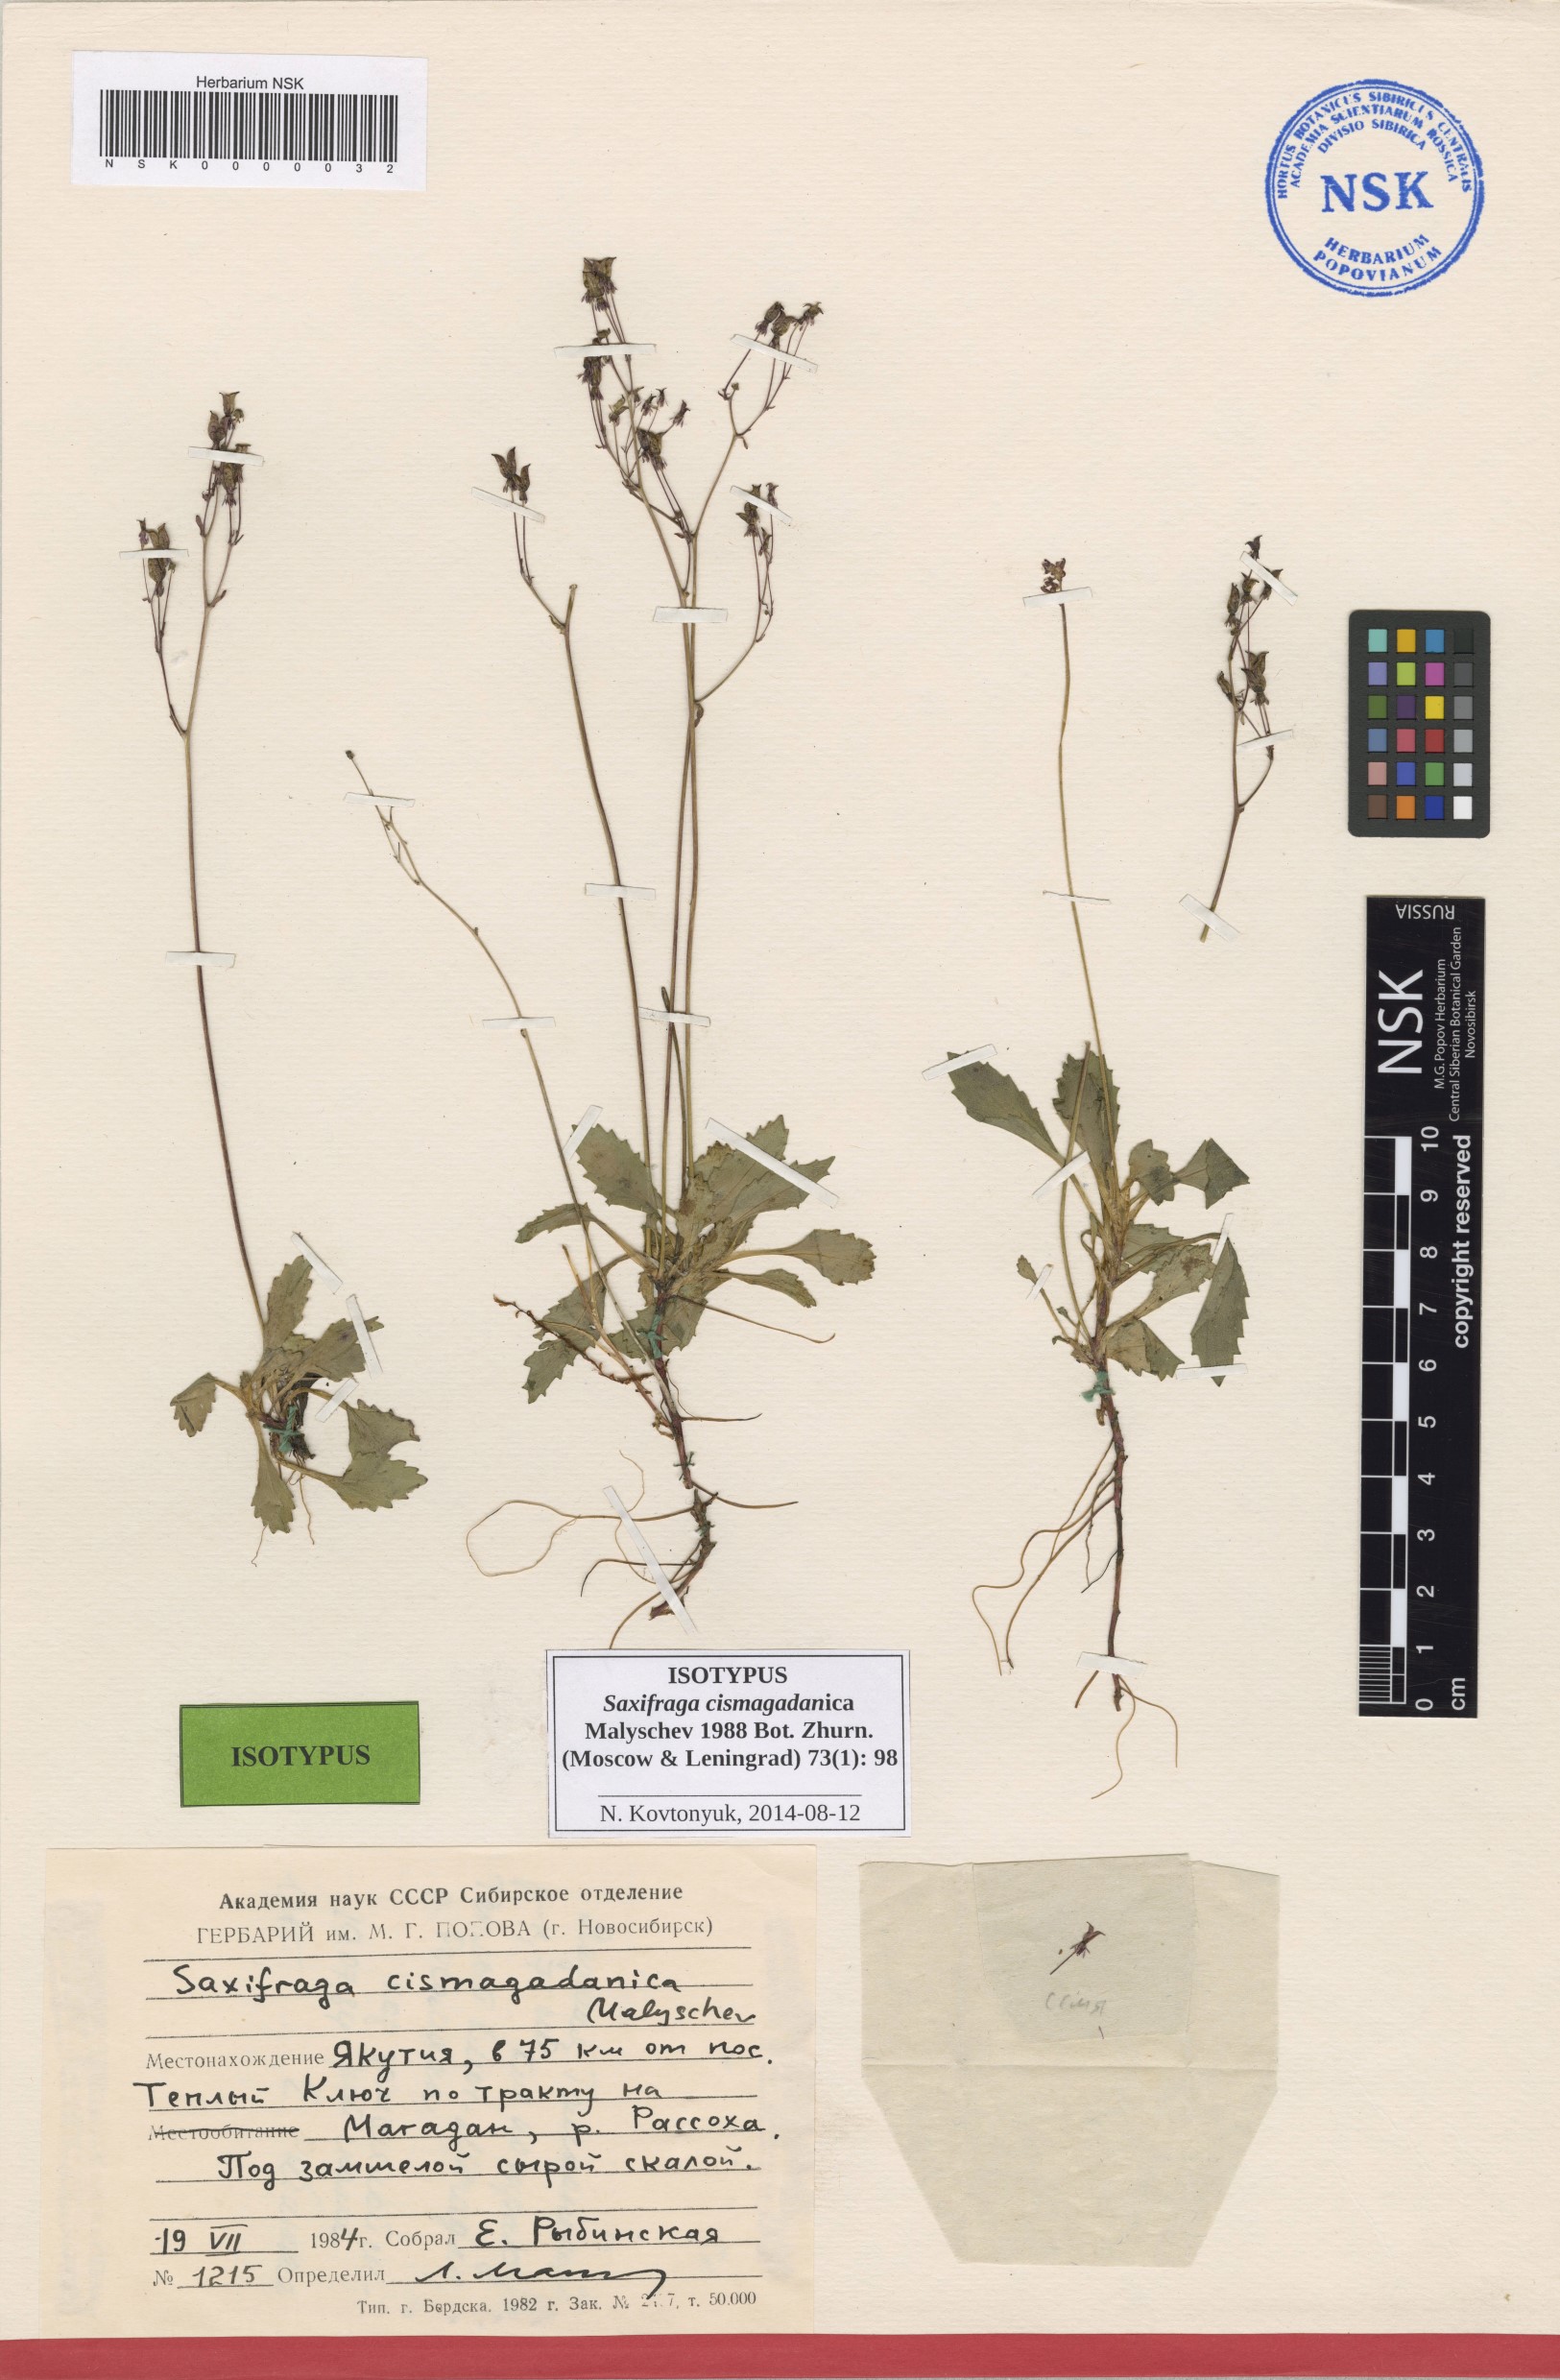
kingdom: Plantae
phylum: Tracheophyta
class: Magnoliopsida
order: Saxifragales
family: Saxifragaceae
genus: Micranthes
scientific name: Micranthes cismagadanica
